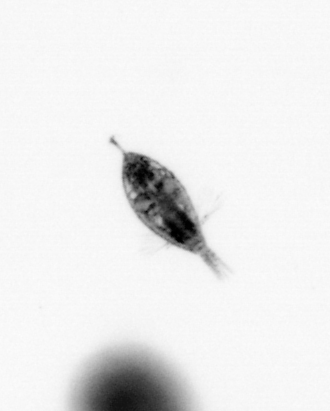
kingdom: Animalia
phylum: Arthropoda
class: Maxillopoda
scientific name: Maxillopoda
